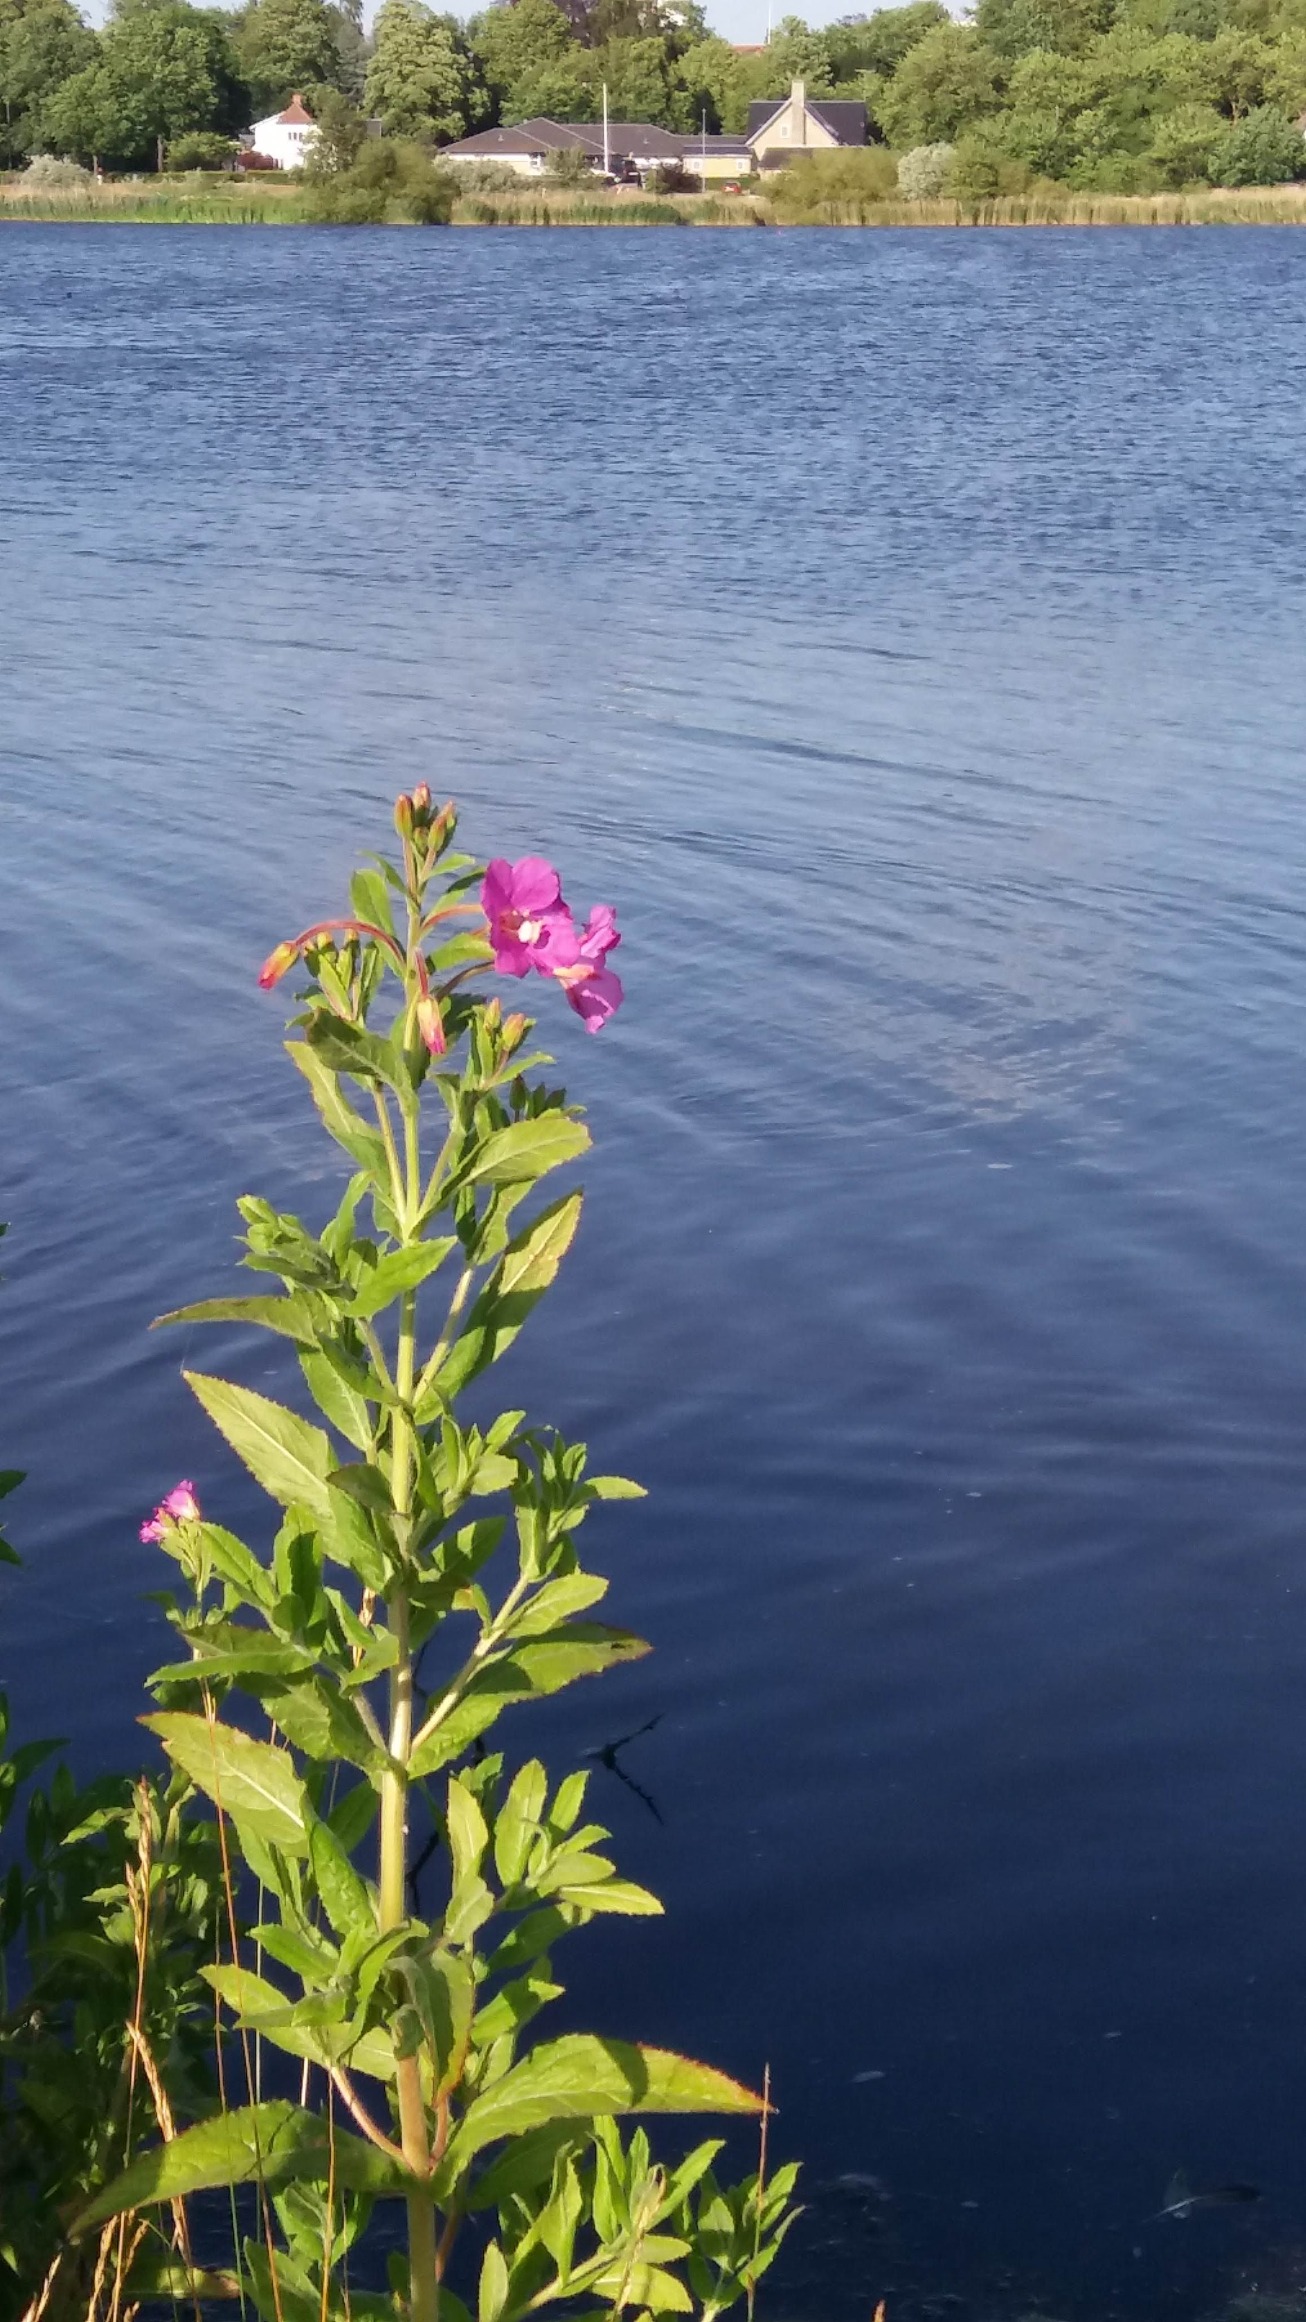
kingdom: Plantae
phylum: Tracheophyta
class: Magnoliopsida
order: Myrtales
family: Onagraceae
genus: Epilobium
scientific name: Epilobium hirsutum
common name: Lådden dueurt
